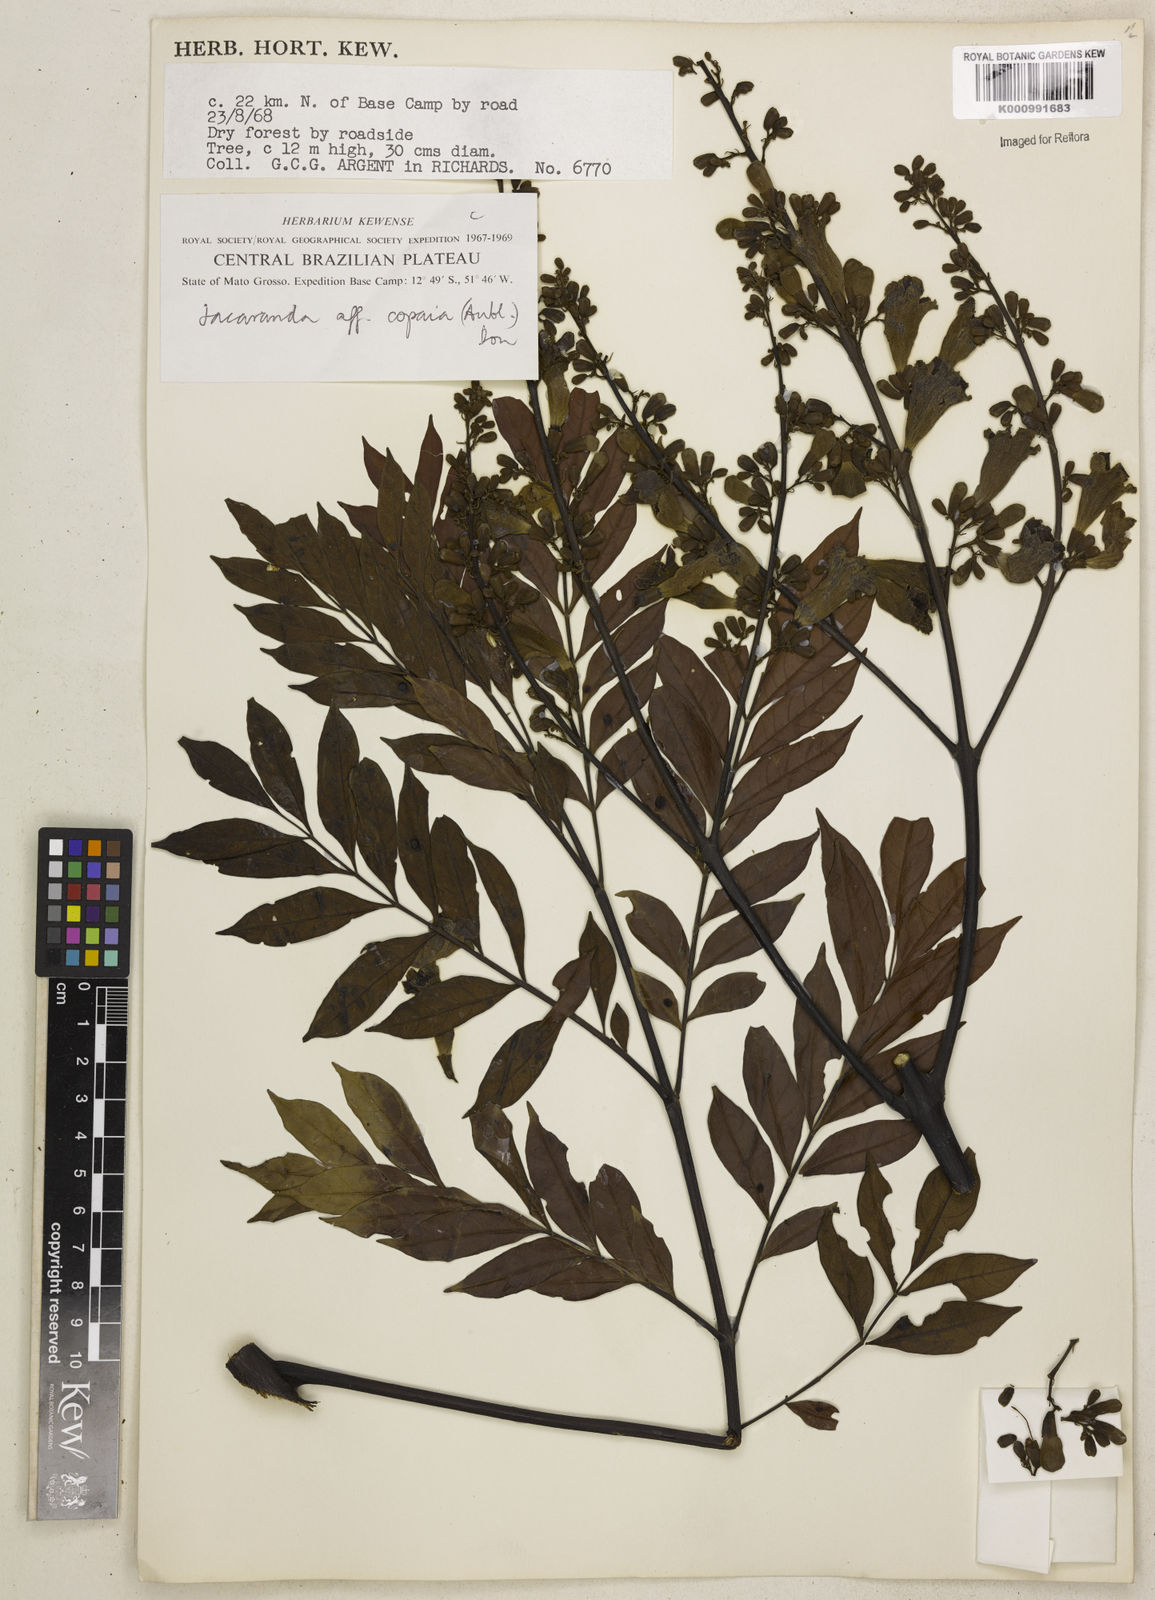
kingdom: Plantae
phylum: Tracheophyta
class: Magnoliopsida
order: Lamiales
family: Bignoniaceae
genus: Jacaranda
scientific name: Jacaranda
